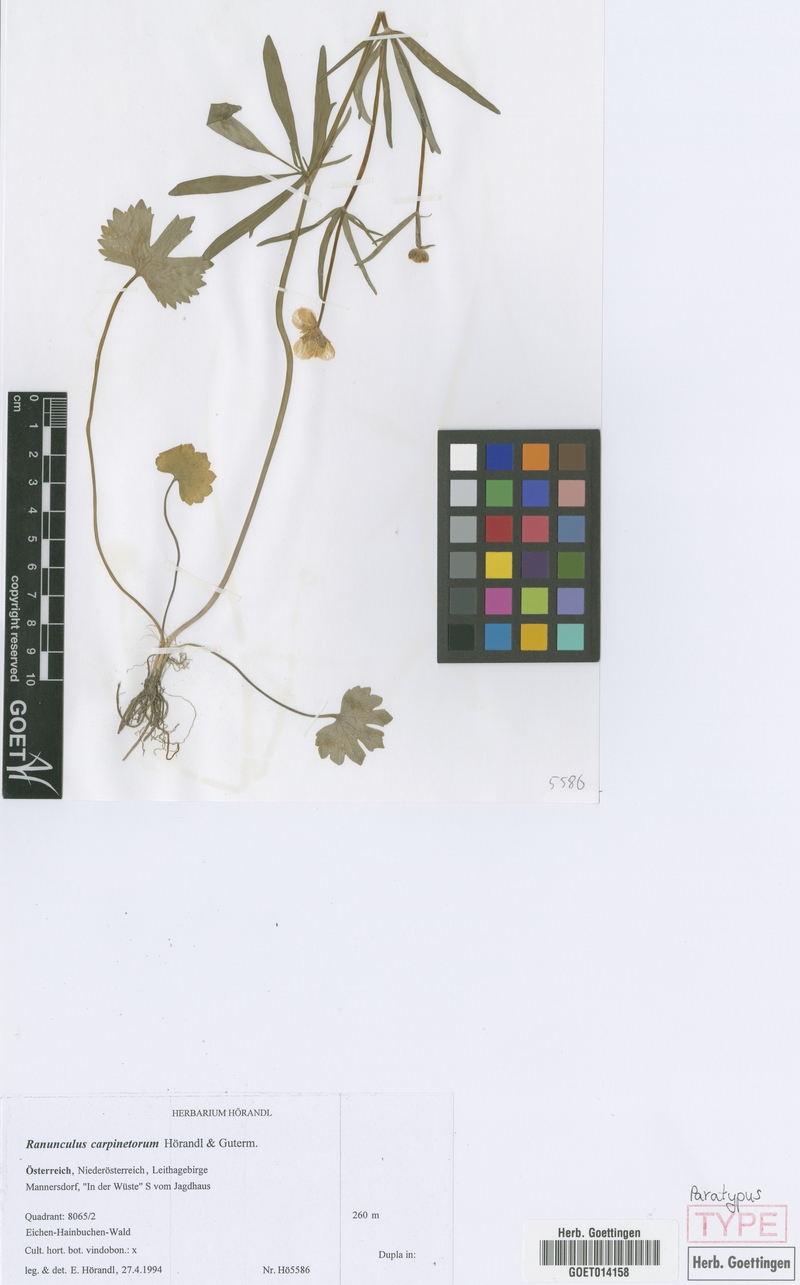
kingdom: Plantae
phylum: Tracheophyta
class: Magnoliopsida
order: Ranunculales
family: Ranunculaceae
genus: Ranunculus
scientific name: Ranunculus carpinetorum
